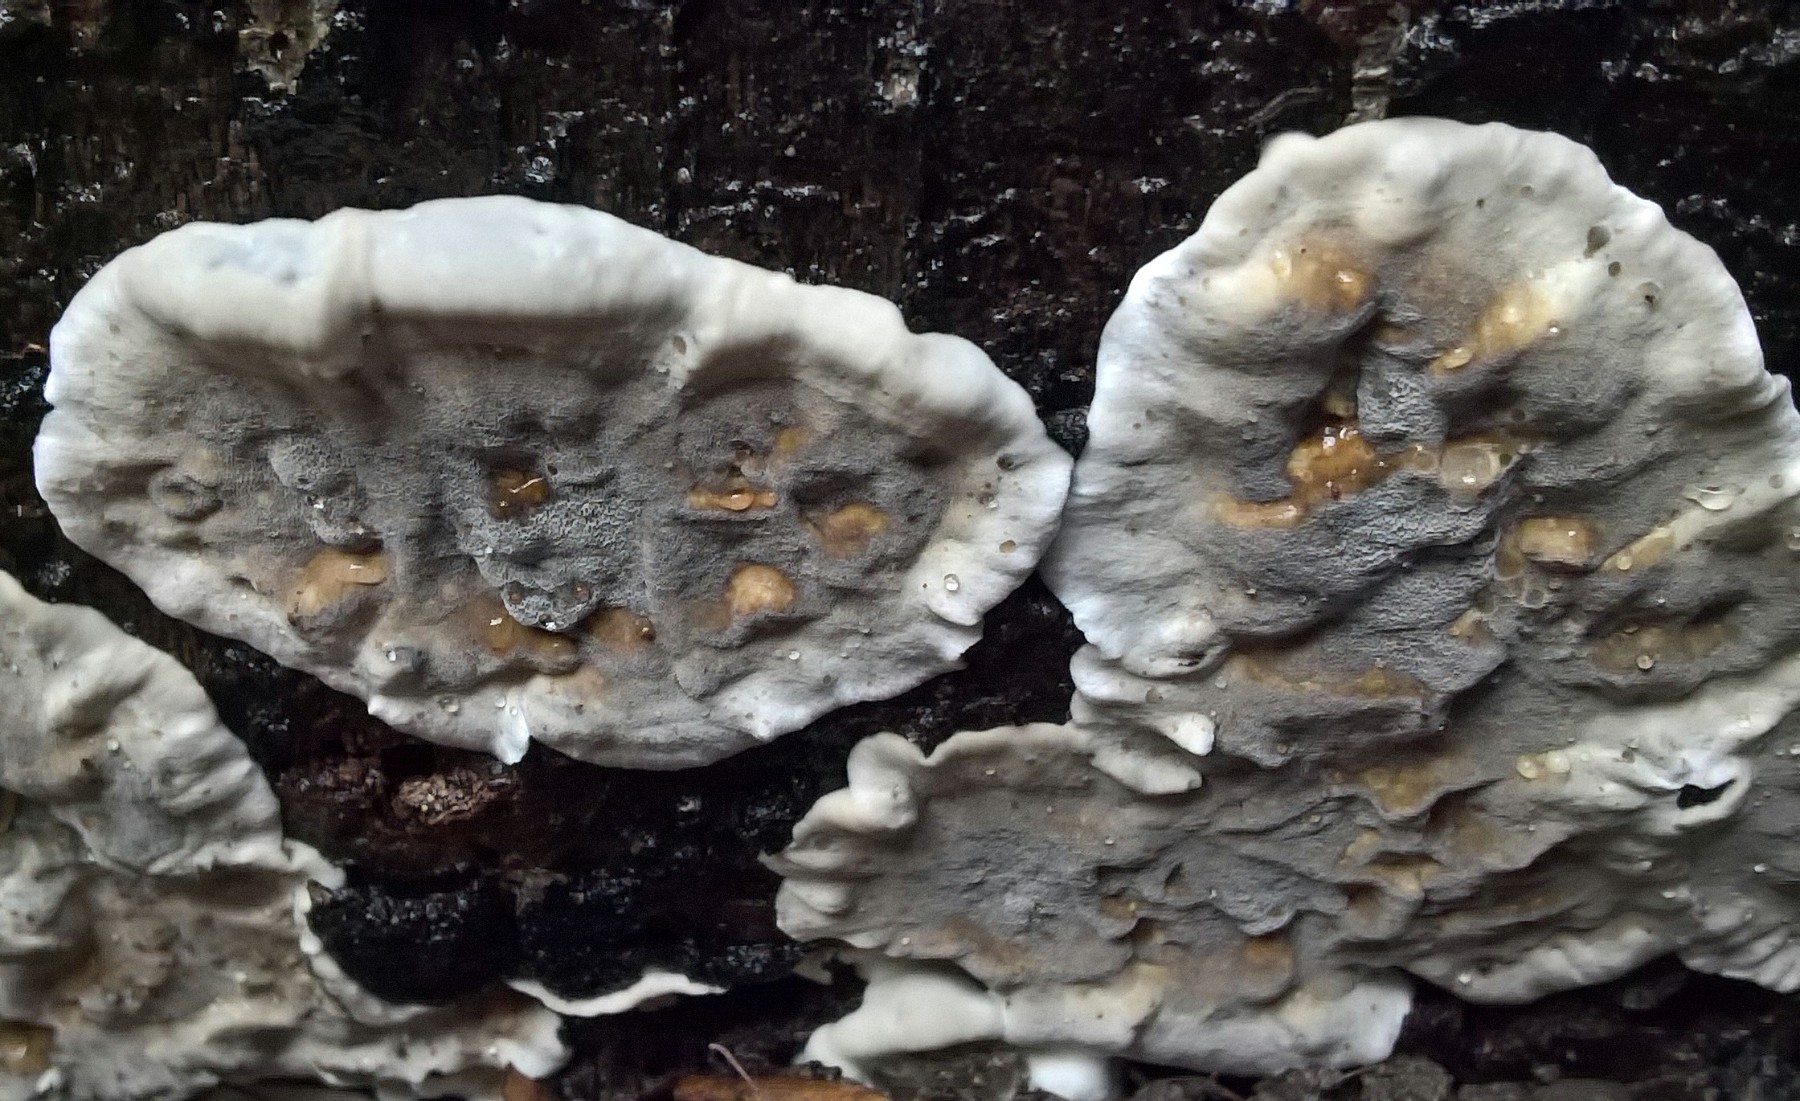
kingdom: Fungi
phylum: Basidiomycota
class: Agaricomycetes
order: Polyporales
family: Phanerochaetaceae
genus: Bjerkandera
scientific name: Bjerkandera adusta
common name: sveden sodporesvamp
